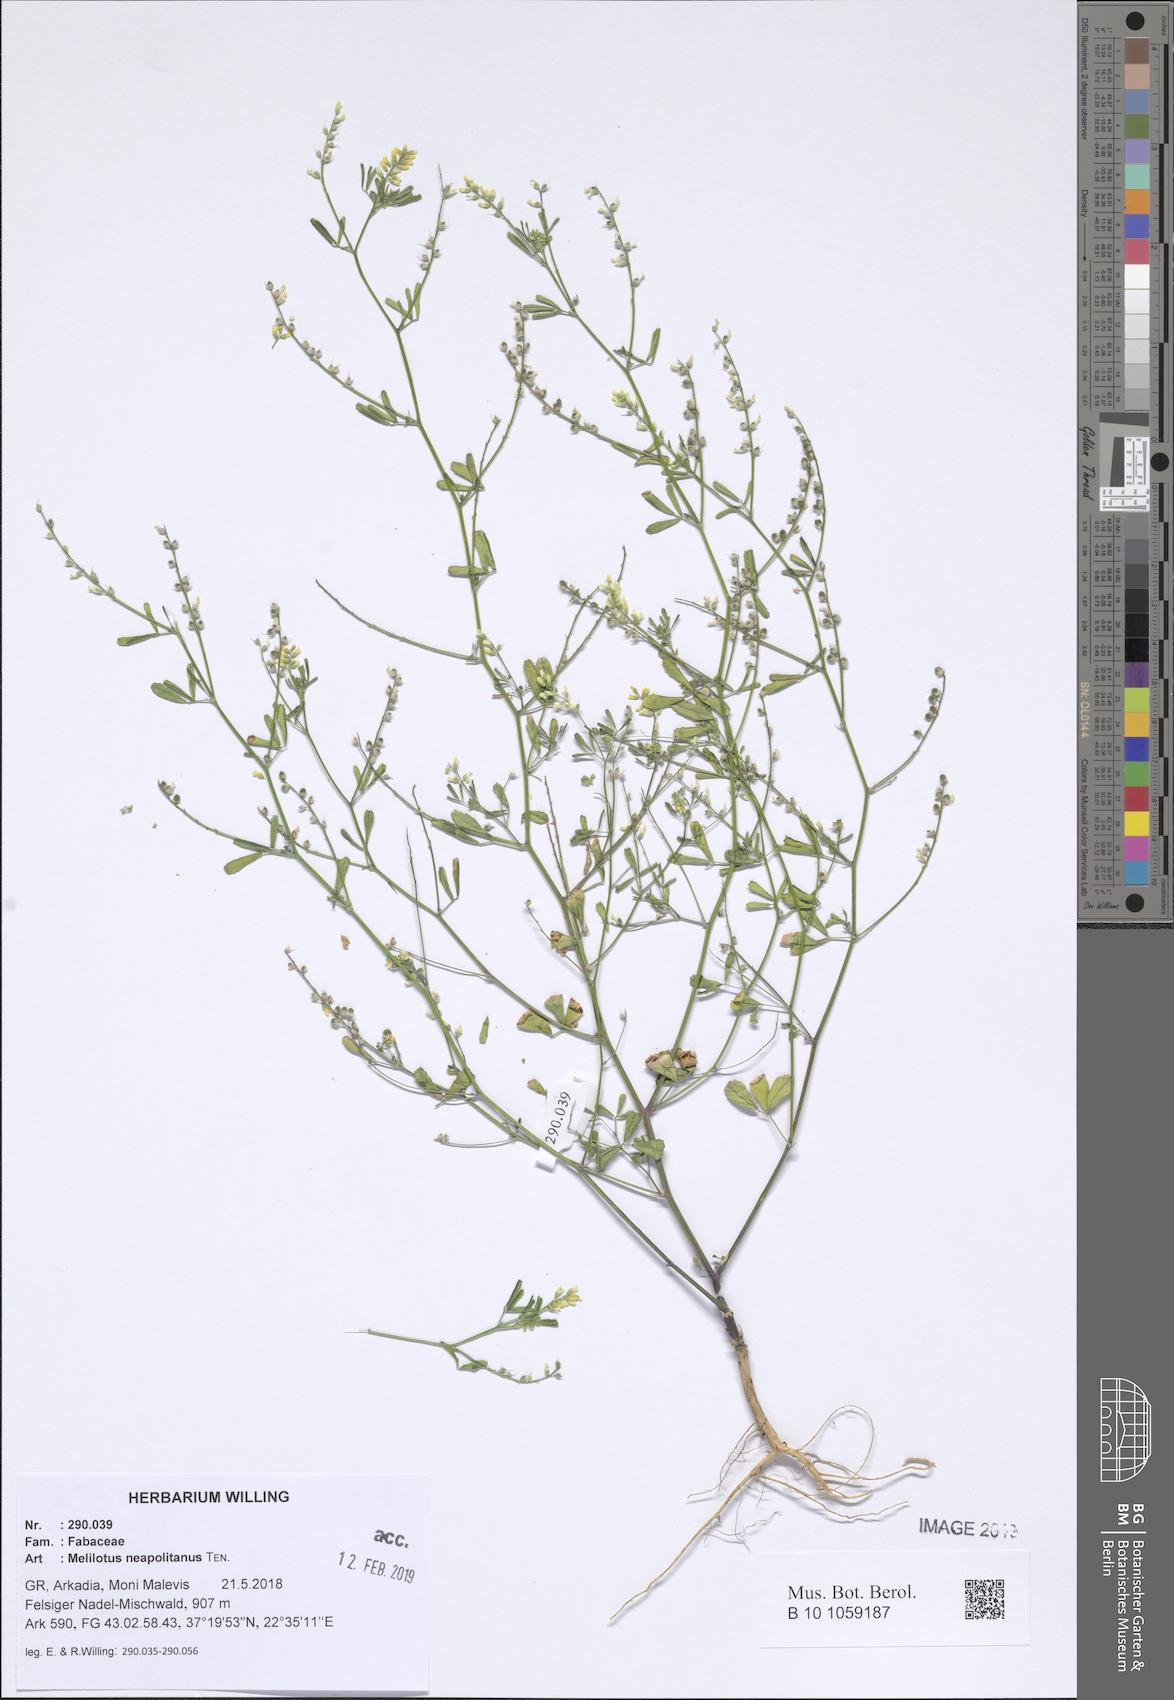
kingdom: Plantae
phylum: Tracheophyta
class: Magnoliopsida
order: Fabales
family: Fabaceae
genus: Melilotus
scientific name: Melilotus neapolitanus
